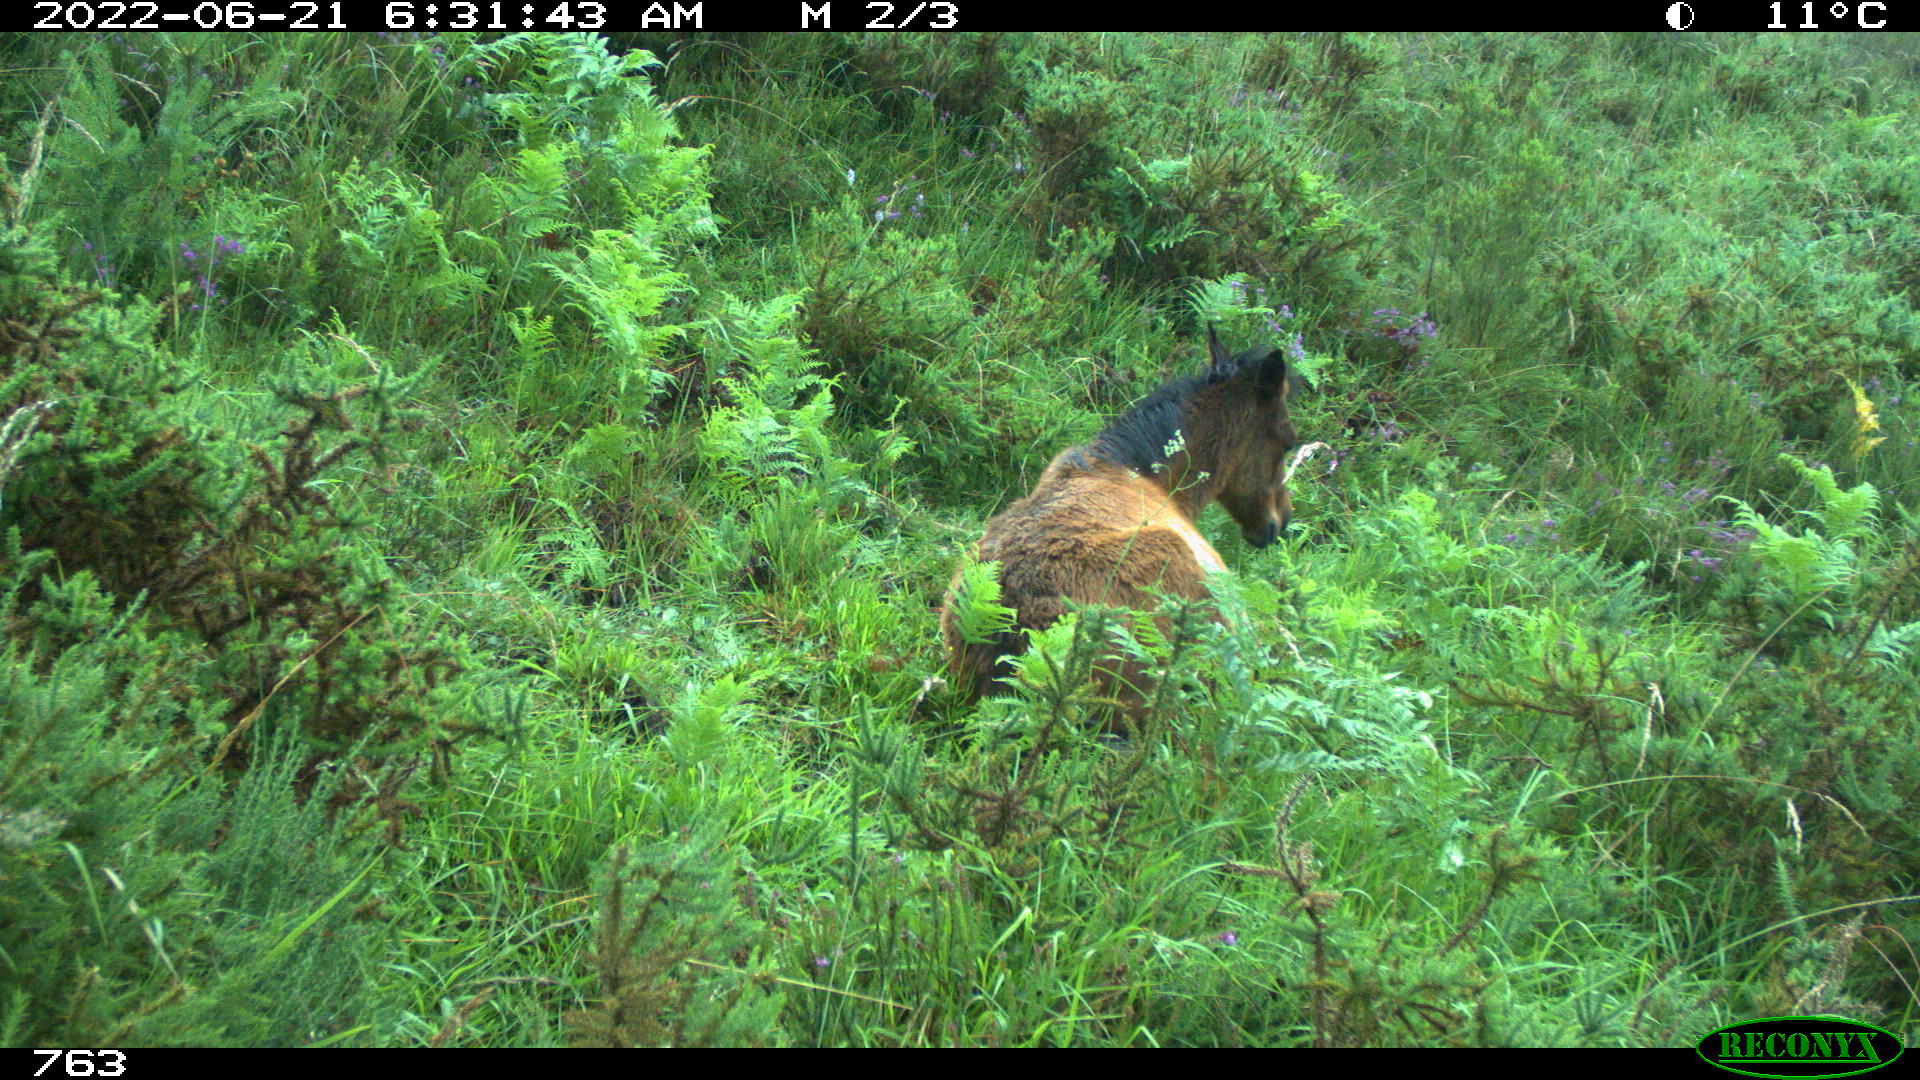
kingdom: Animalia
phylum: Chordata
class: Mammalia
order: Perissodactyla
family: Equidae
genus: Equus
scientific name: Equus caballus
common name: Horse
